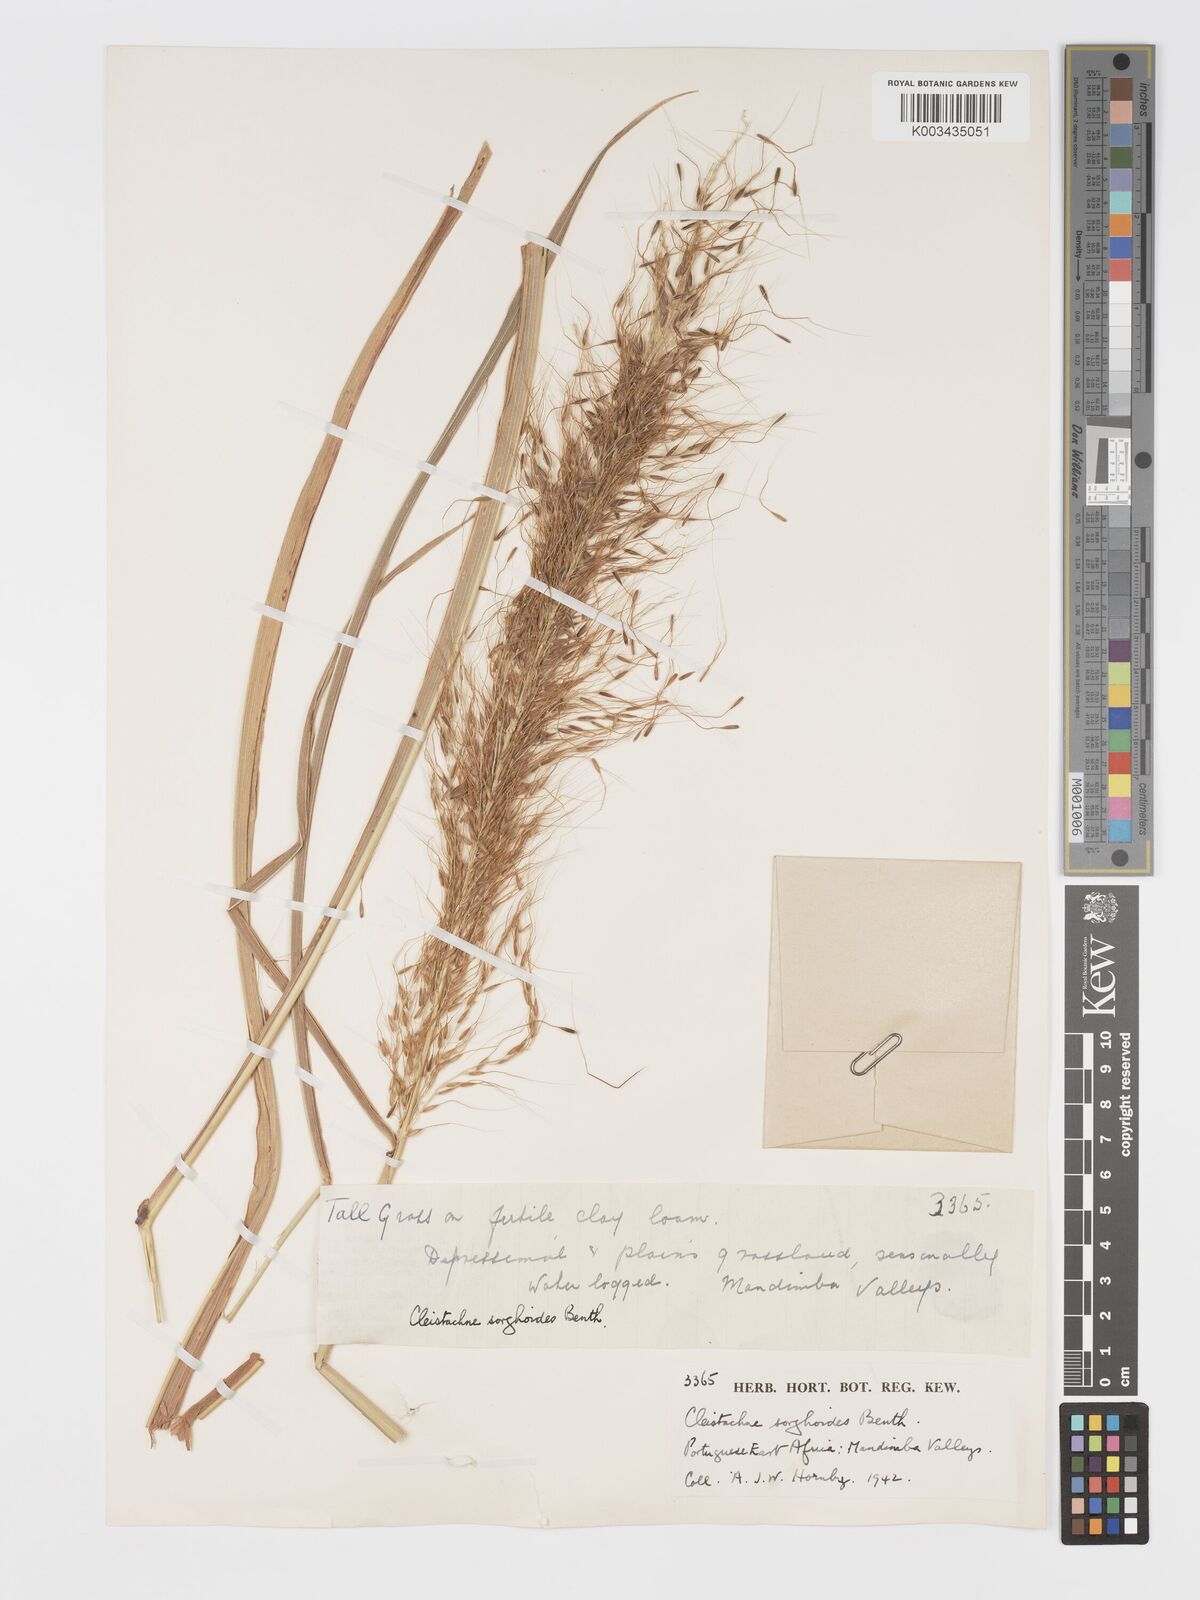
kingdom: Plantae
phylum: Tracheophyta
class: Liliopsida
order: Poales
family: Poaceae
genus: Cleistachne
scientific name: Cleistachne sorghoides
